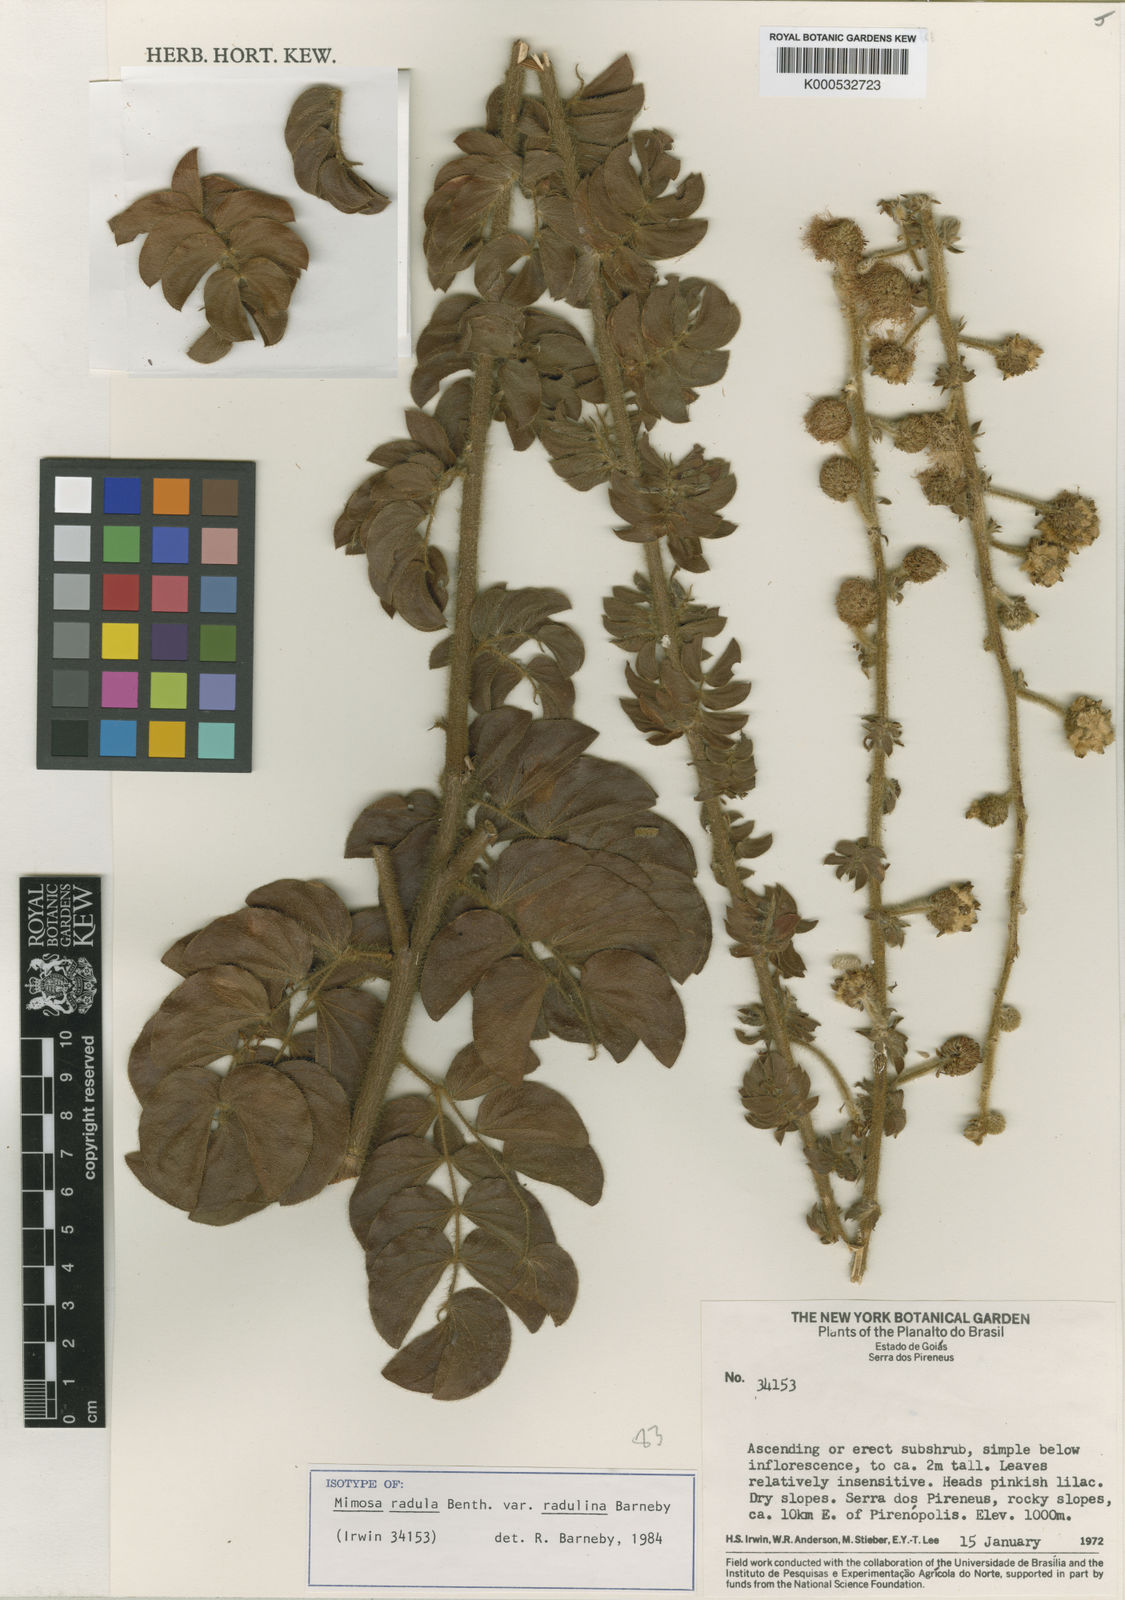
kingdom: Plantae
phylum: Tracheophyta
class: Magnoliopsida
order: Fabales
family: Fabaceae
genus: Mimosa
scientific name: Mimosa radula
